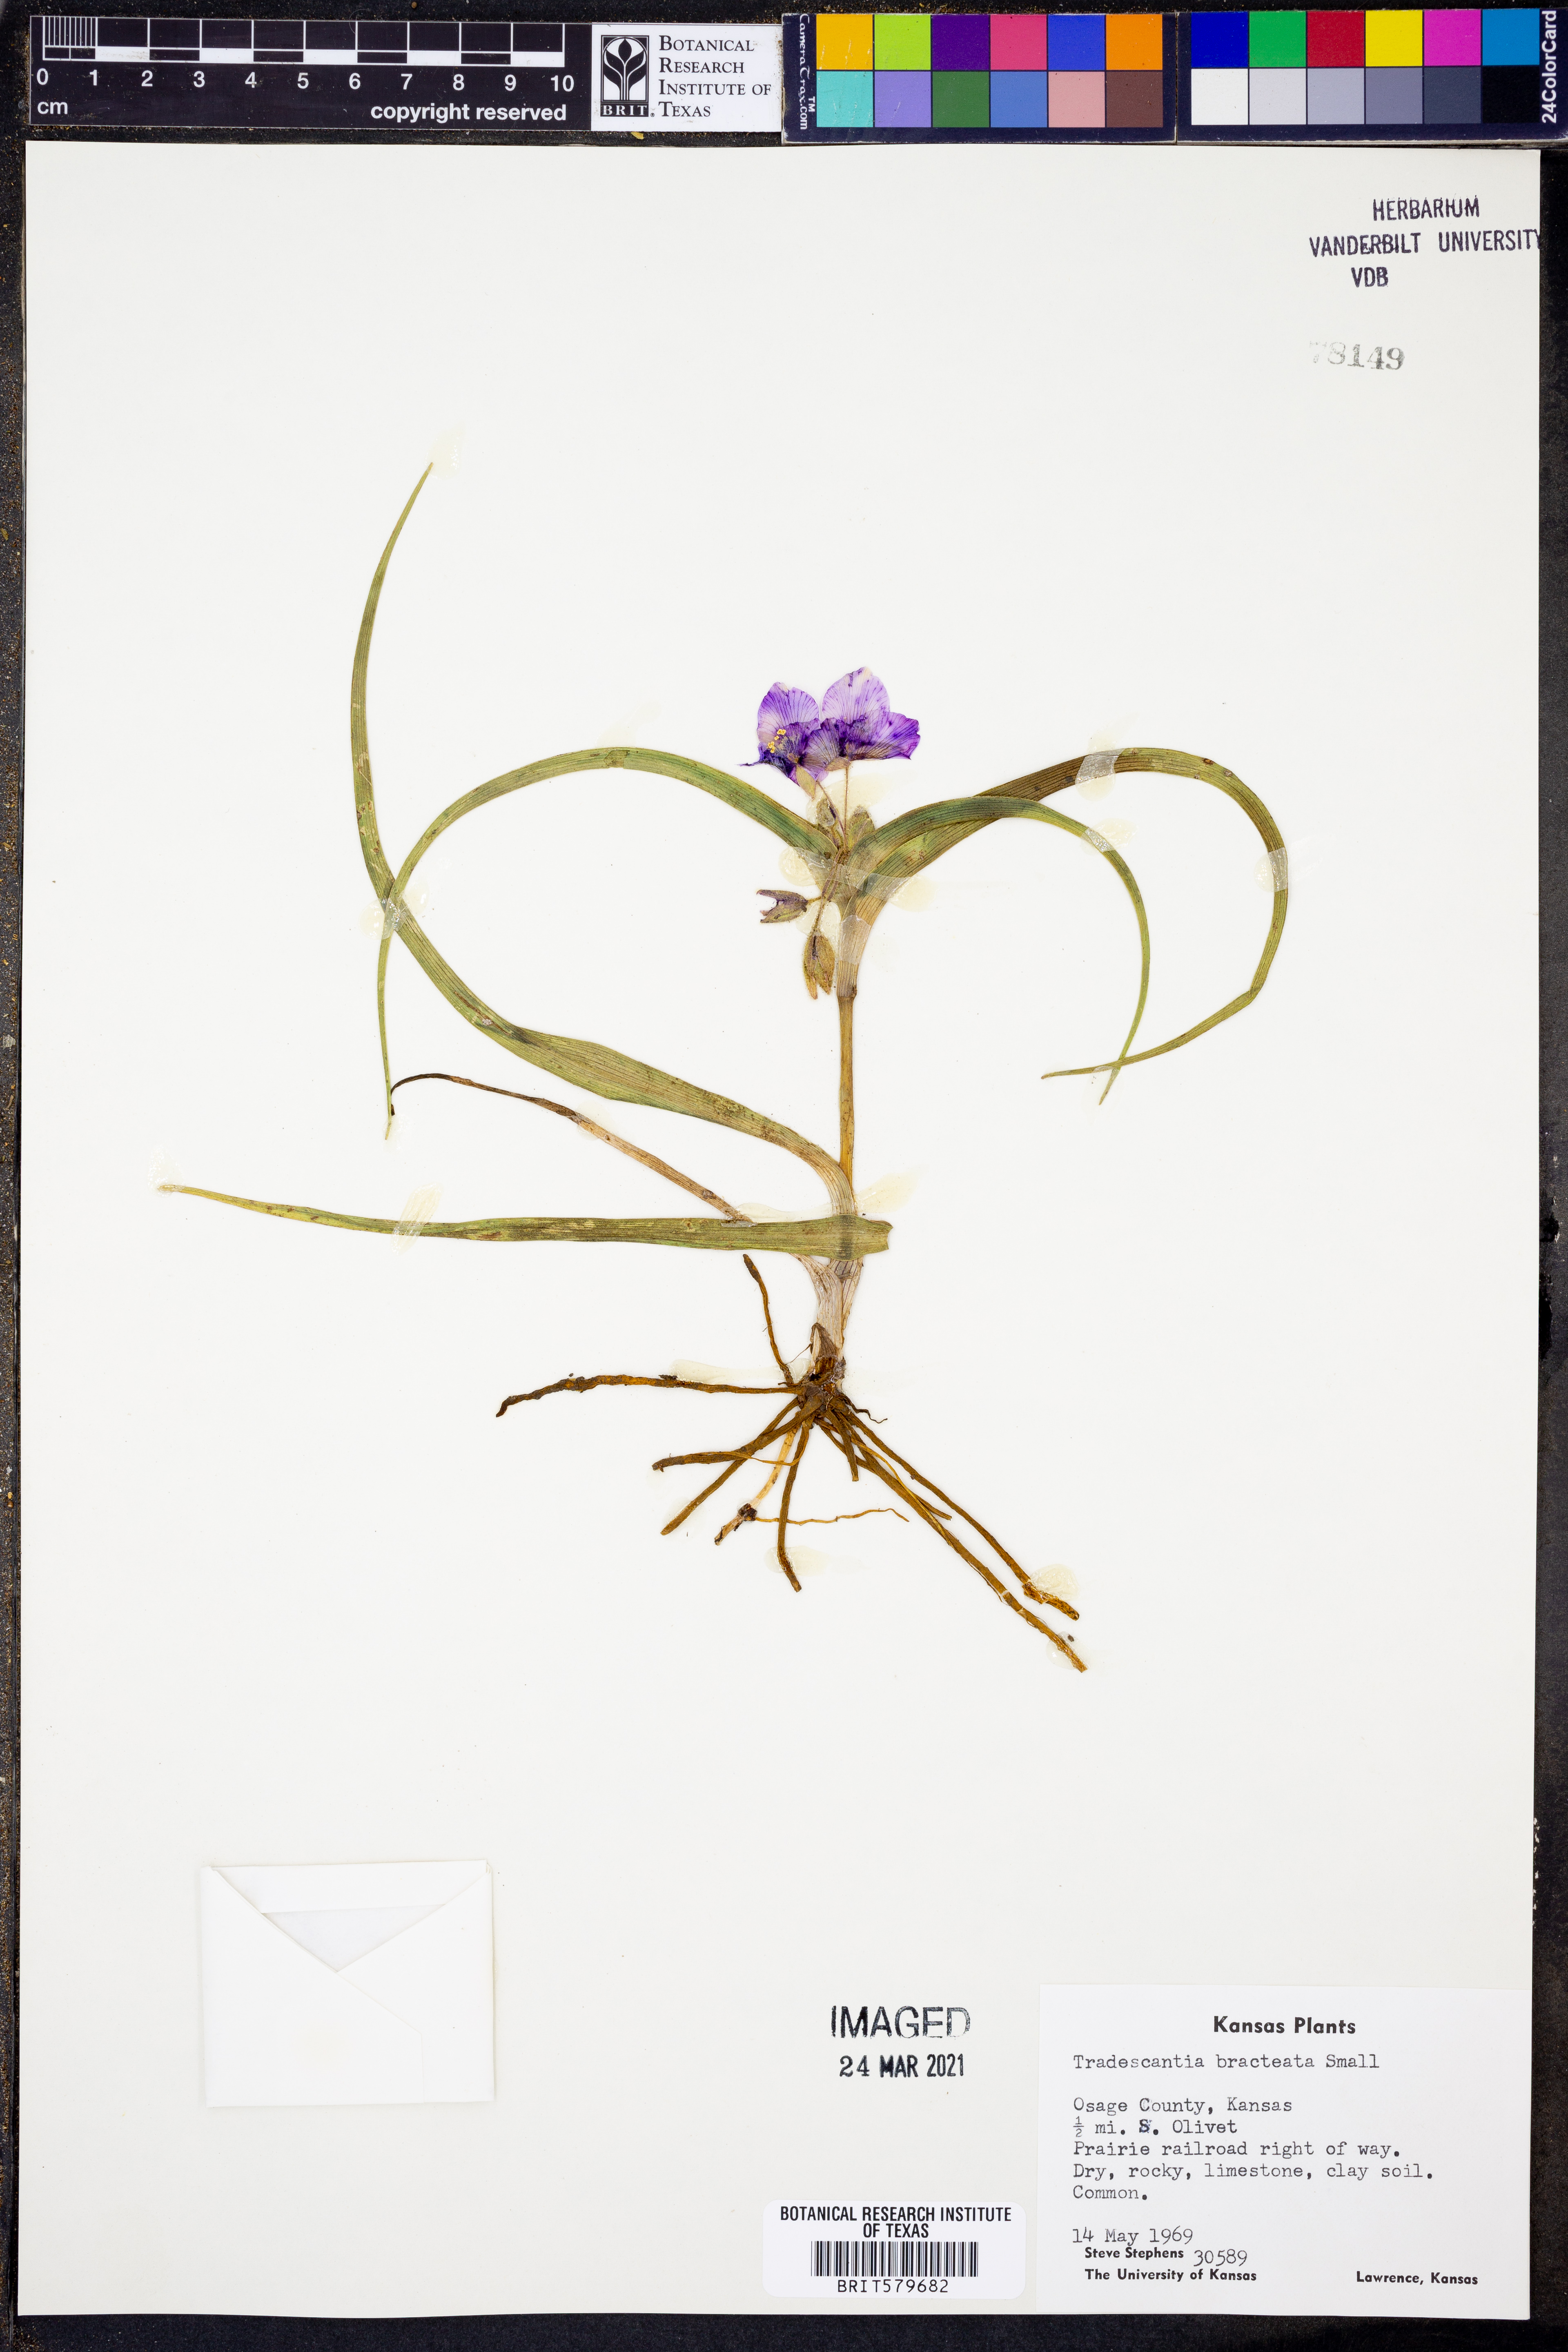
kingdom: Plantae
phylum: Tracheophyta
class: Liliopsida
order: Commelinales
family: Commelinaceae
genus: Tradescantia
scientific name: Tradescantia bracteata
